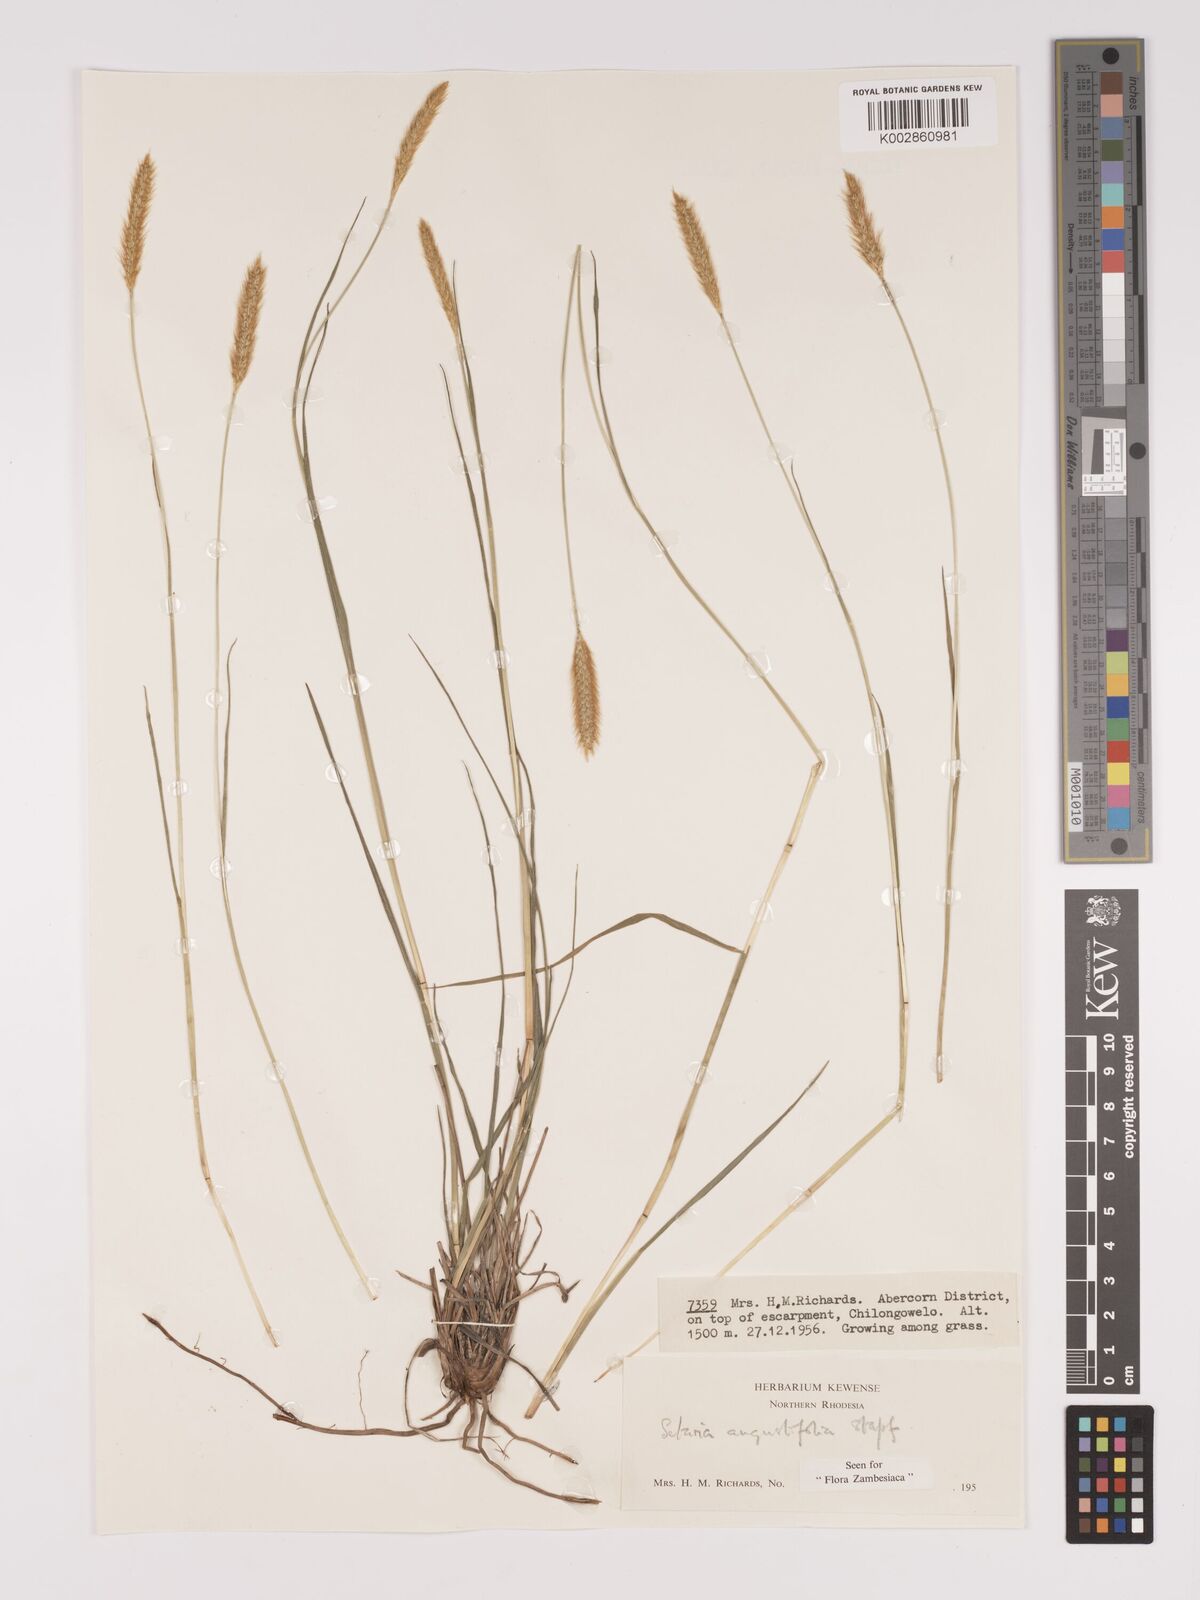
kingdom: Plantae
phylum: Tracheophyta
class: Liliopsida
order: Poales
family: Poaceae
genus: Setaria
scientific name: Setaria
